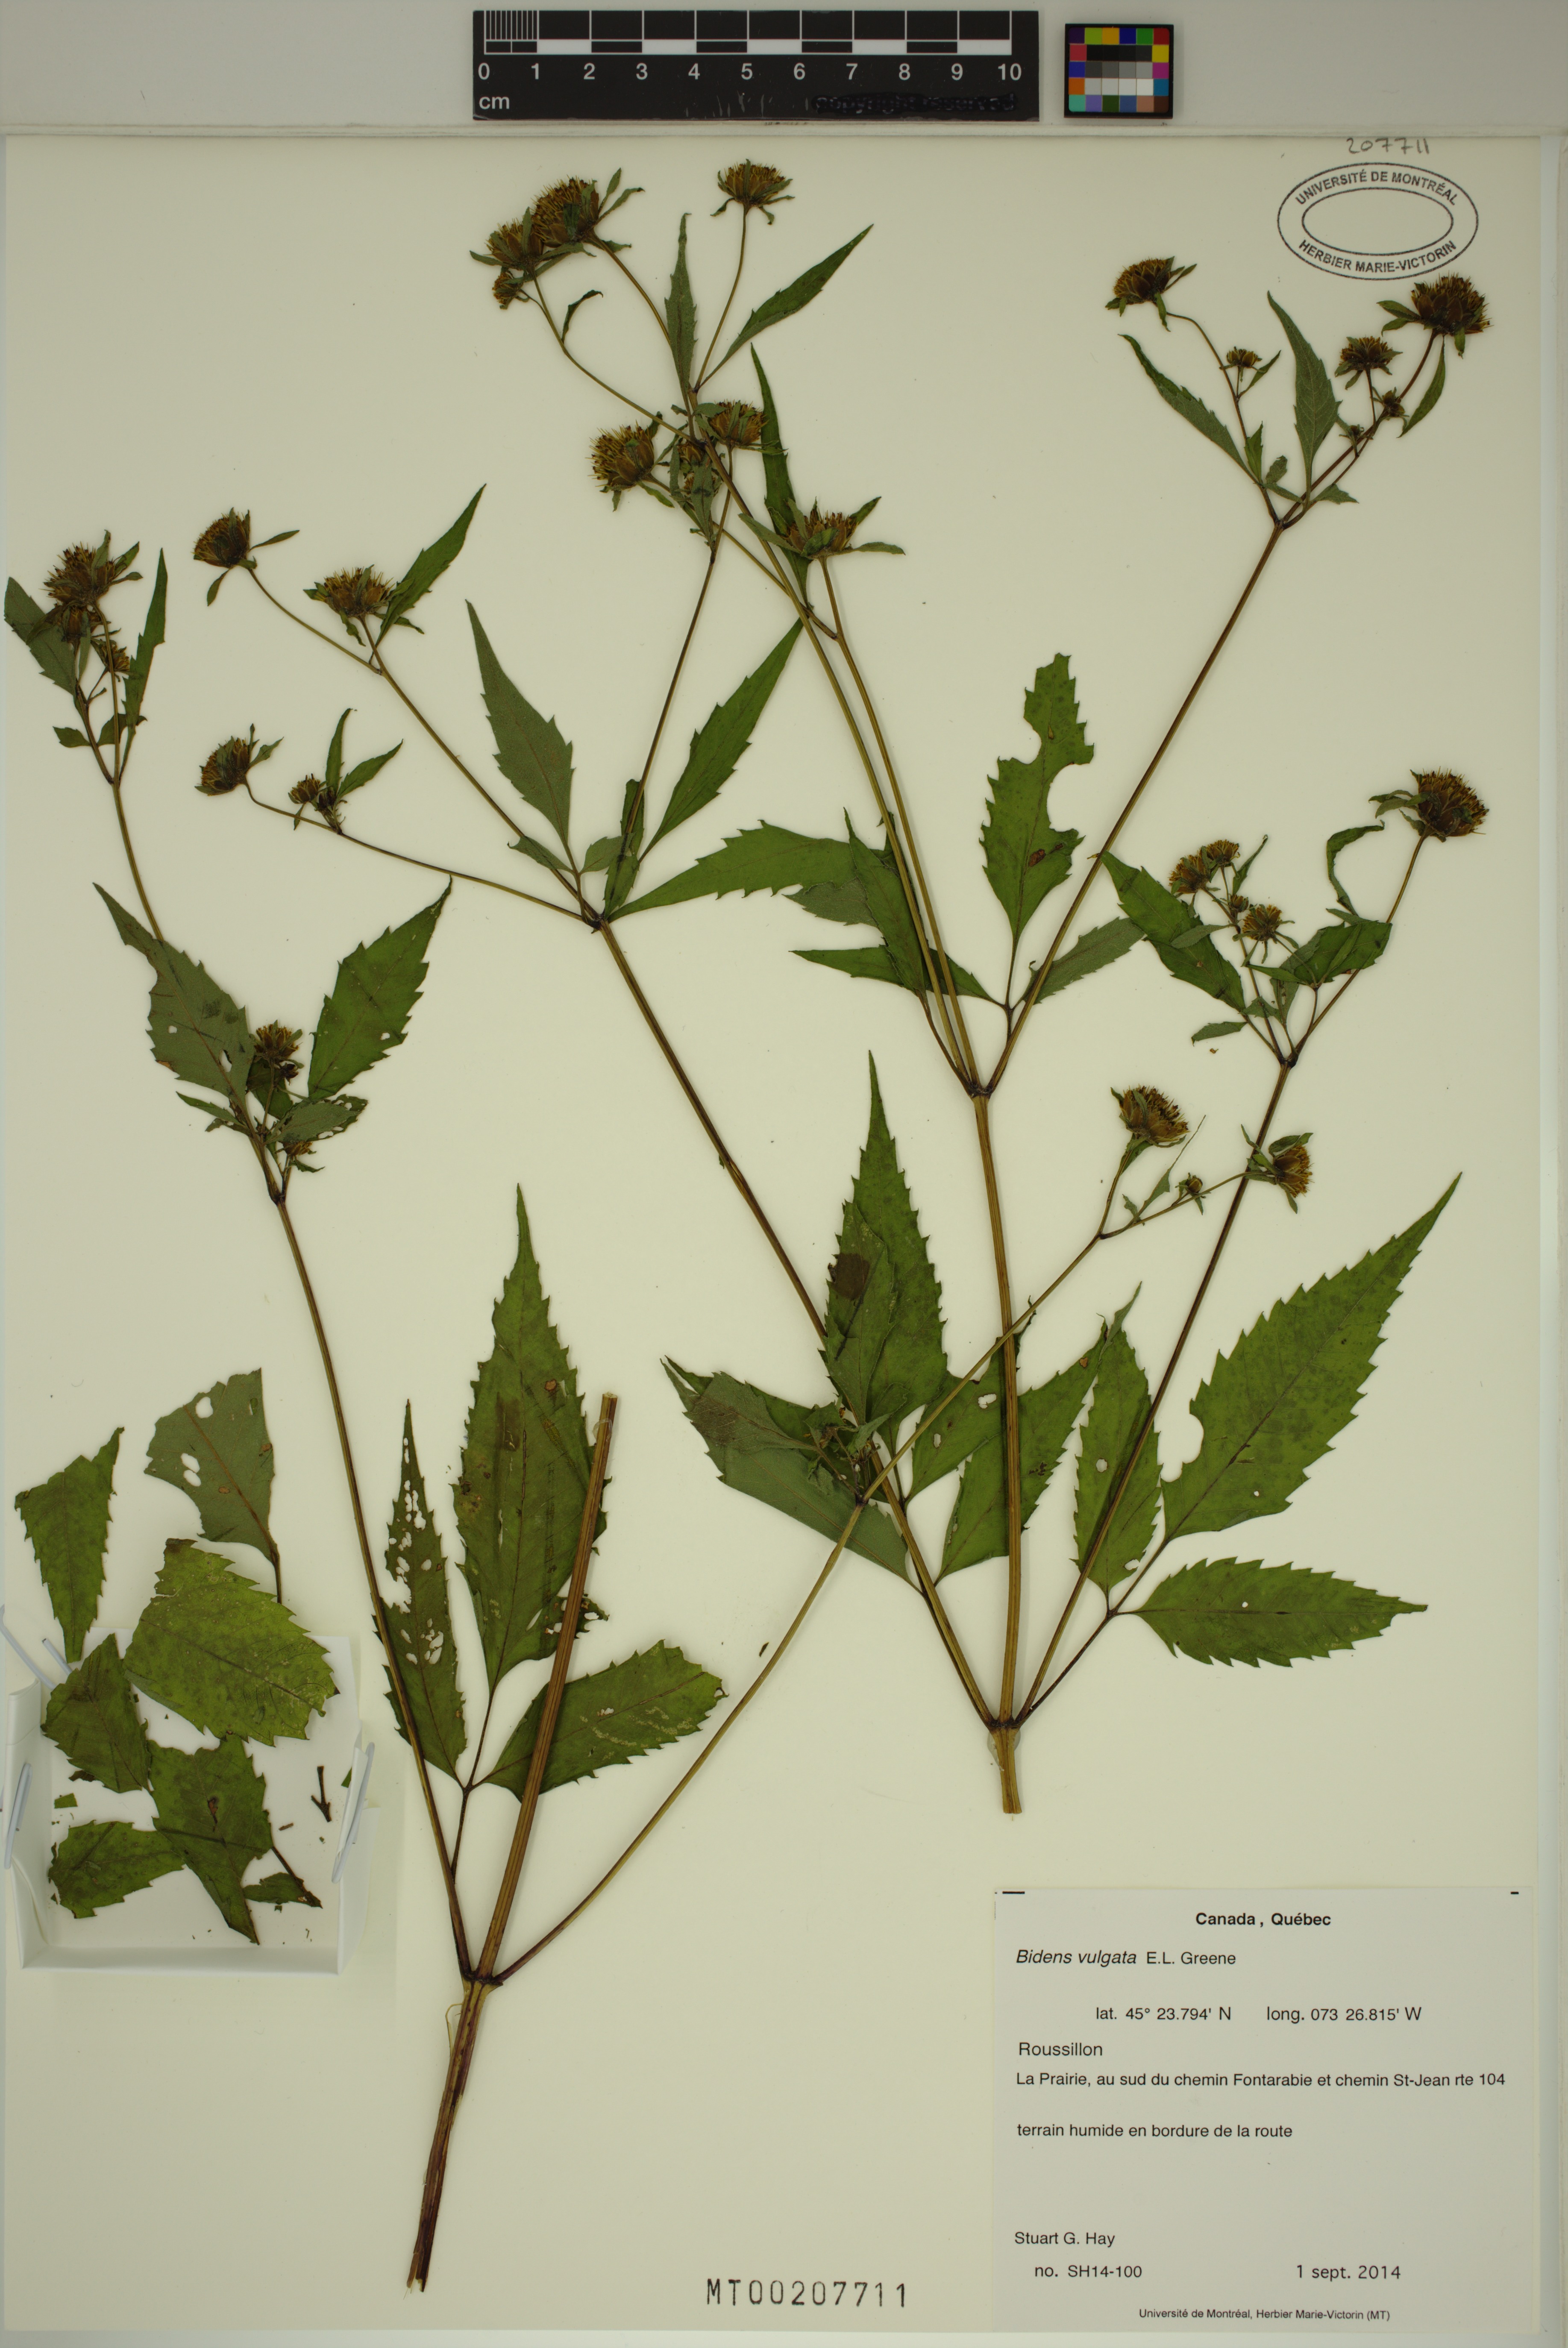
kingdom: Plantae
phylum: Tracheophyta
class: Magnoliopsida
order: Asterales
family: Asteraceae
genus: Bidens
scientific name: Bidens vulgata
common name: Tall beggarticks
